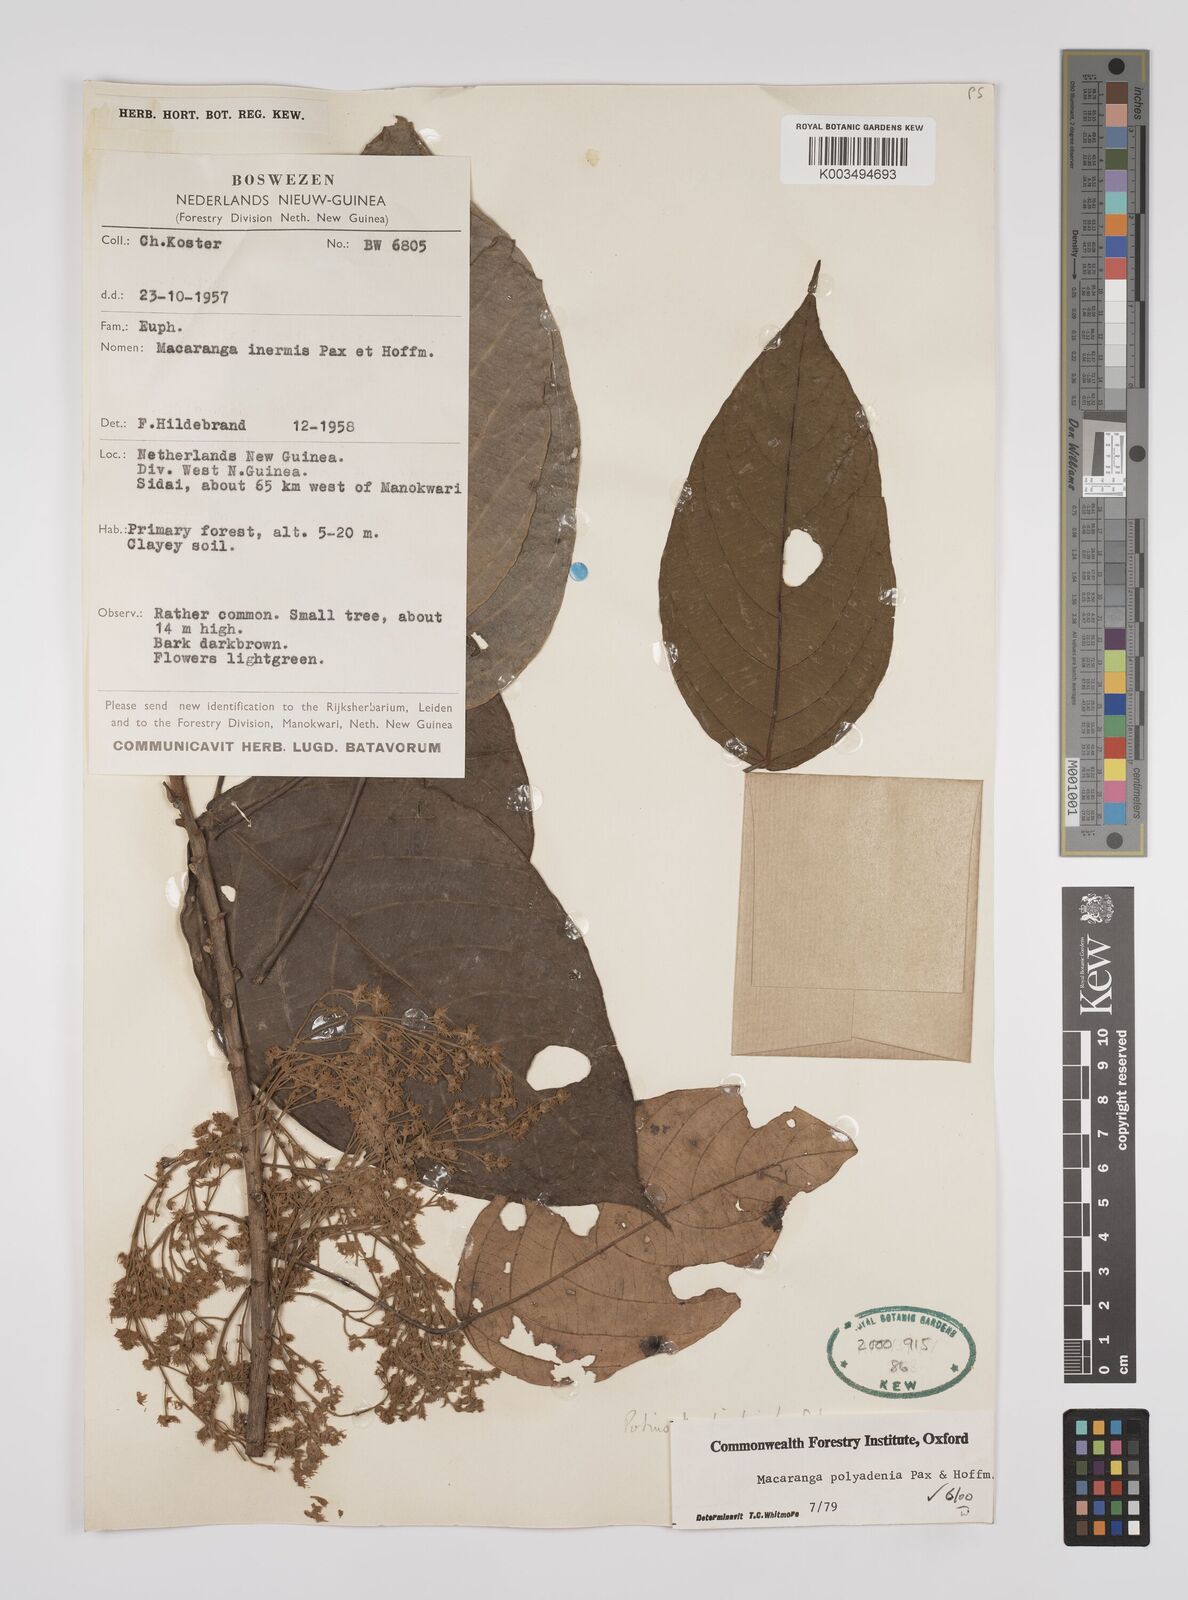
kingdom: Plantae
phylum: Tracheophyta
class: Magnoliopsida
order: Malpighiales
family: Euphorbiaceae
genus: Macaranga
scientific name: Macaranga polyadenia
